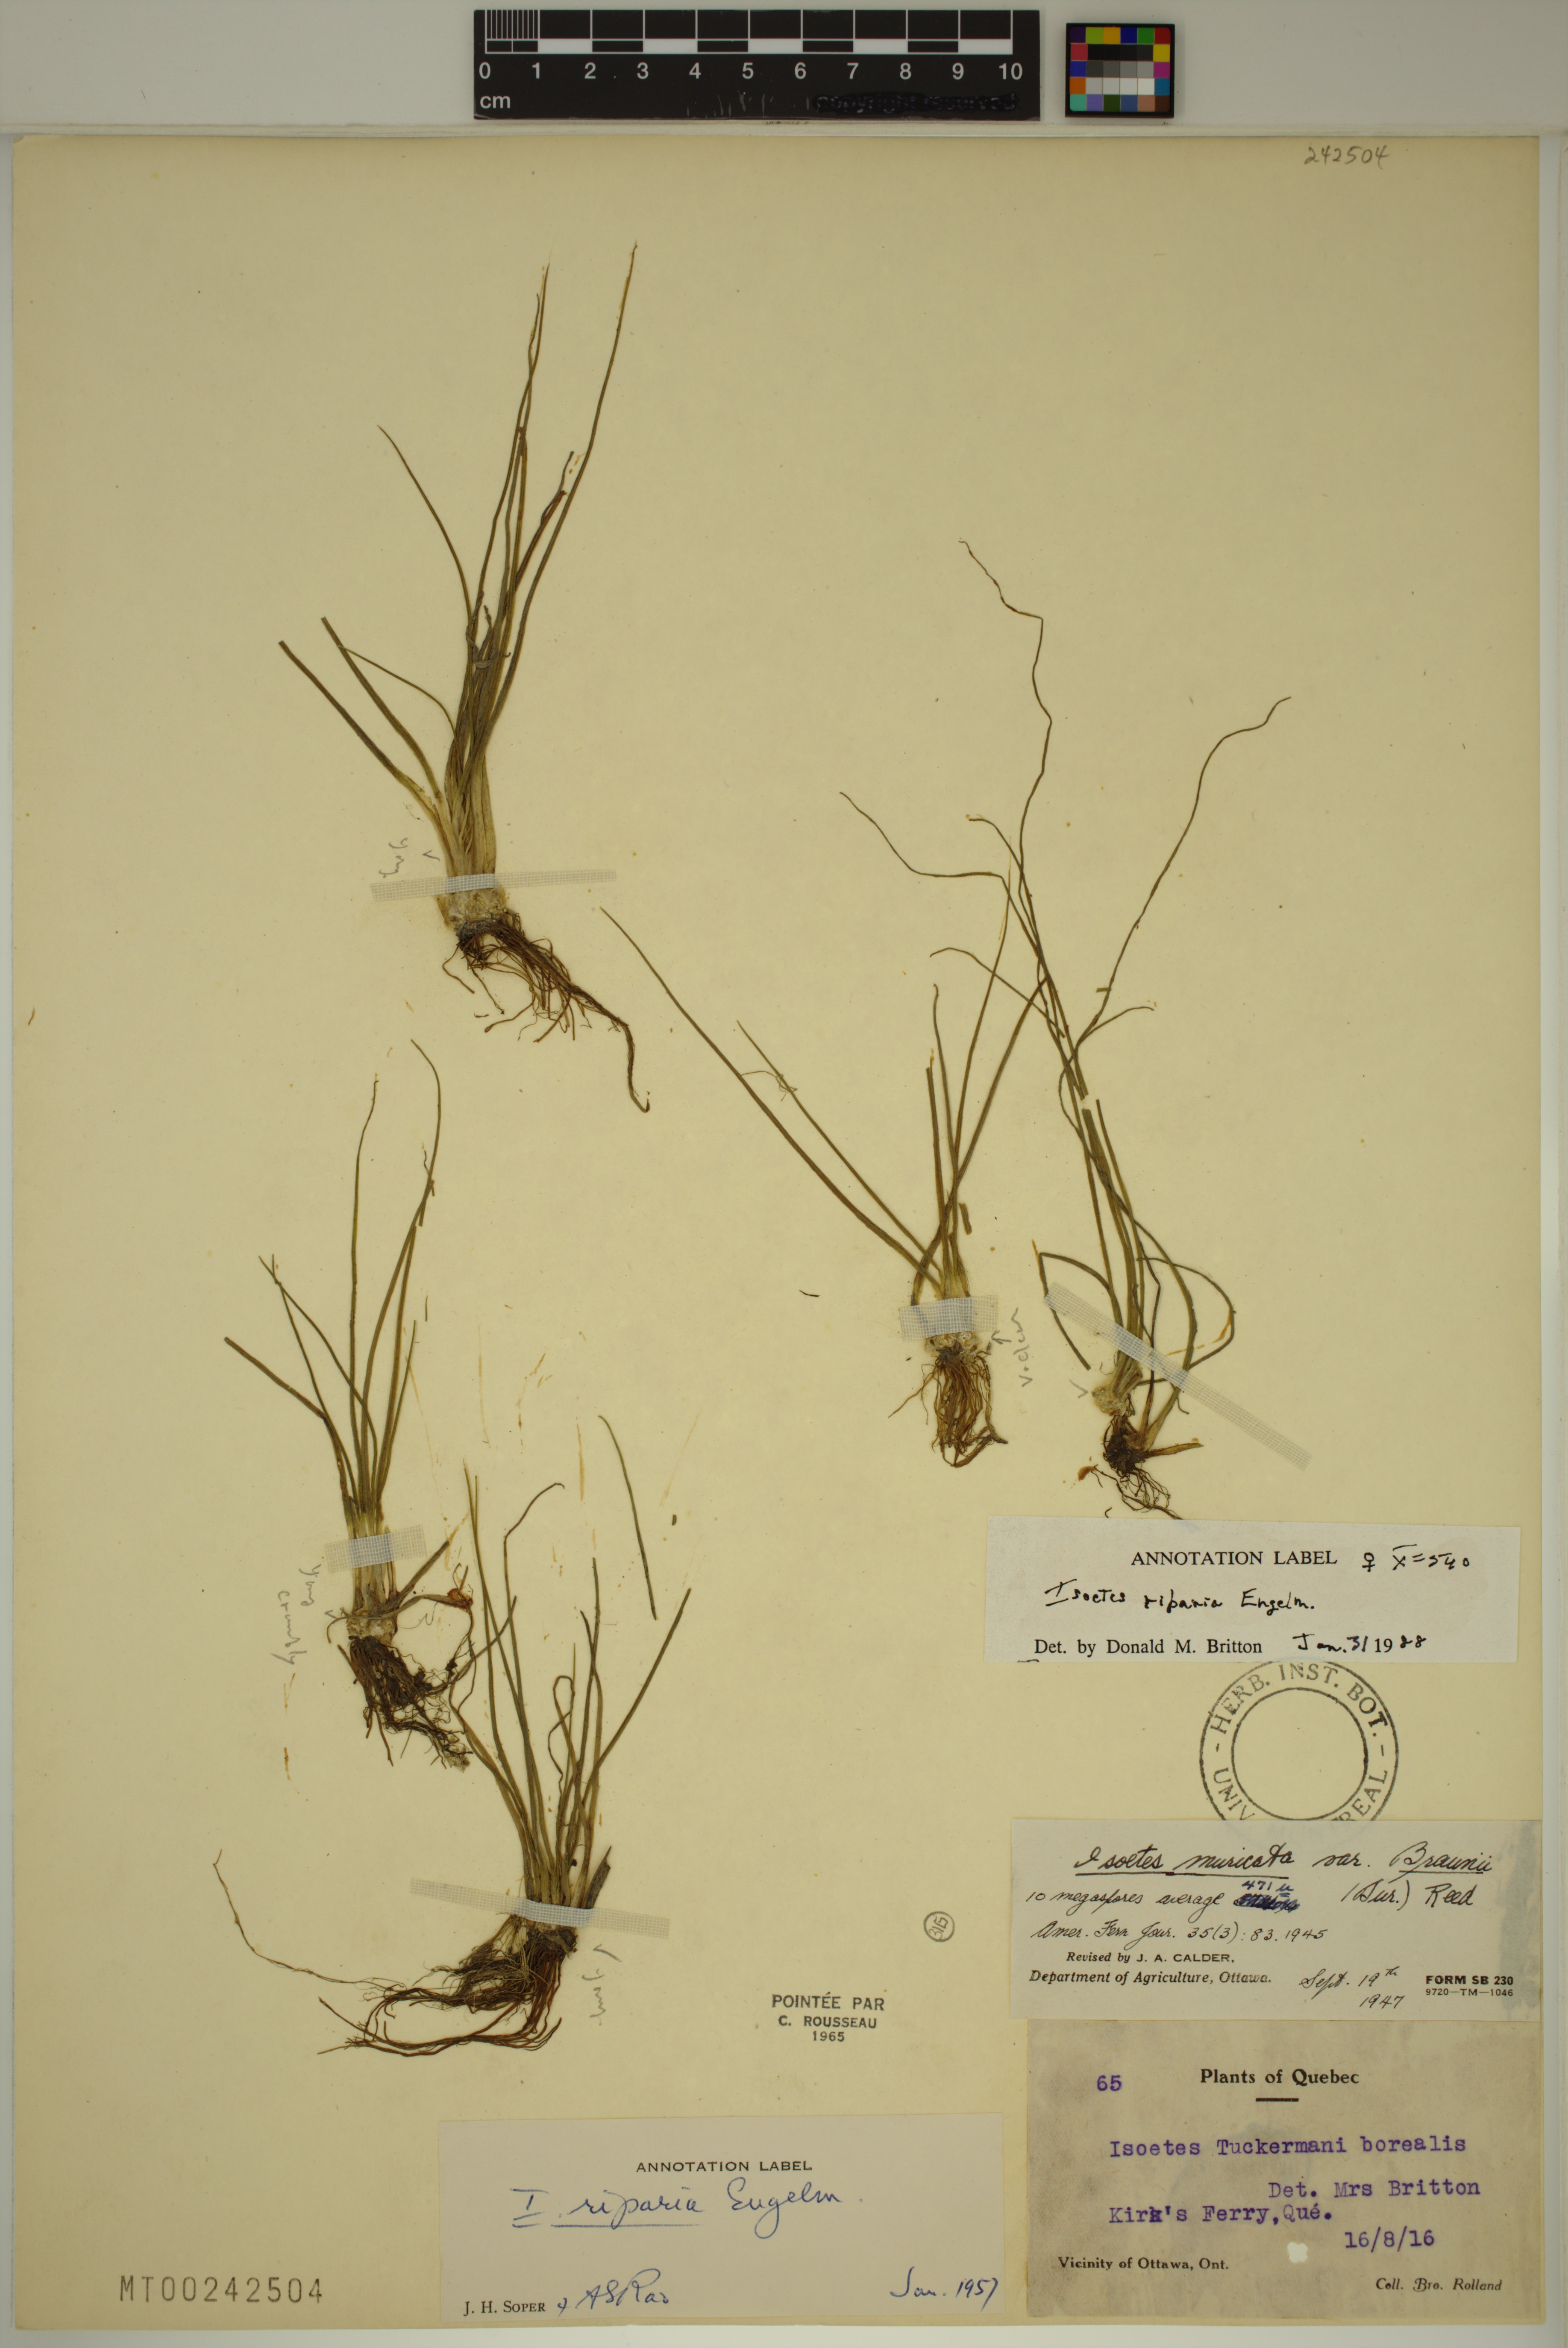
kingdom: Plantae
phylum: Tracheophyta
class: Lycopodiopsida
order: Isoetales
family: Isoetaceae
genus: Isoetes
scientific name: Isoetes septentrionalis
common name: Northern quillwort
